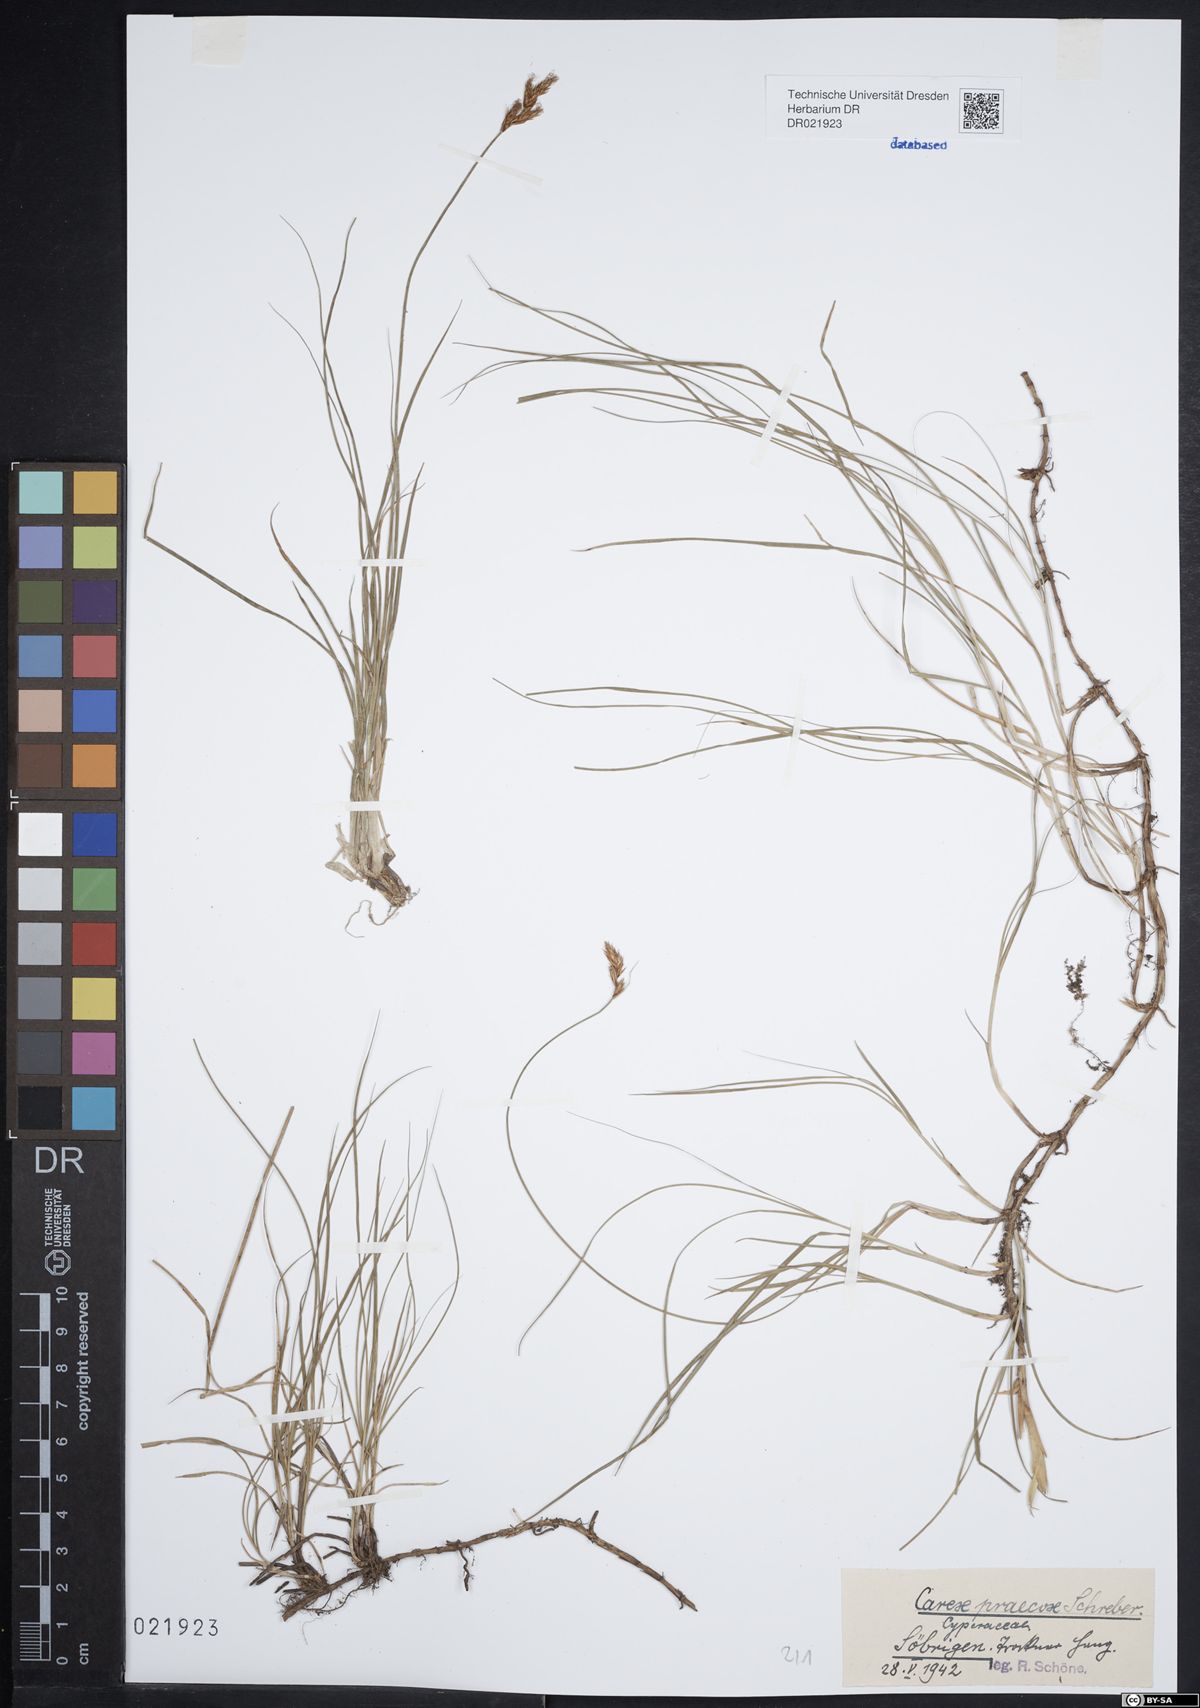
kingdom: Plantae
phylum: Tracheophyta
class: Liliopsida
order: Poales
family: Cyperaceae
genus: Carex
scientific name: Carex praecox
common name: Early sedge
